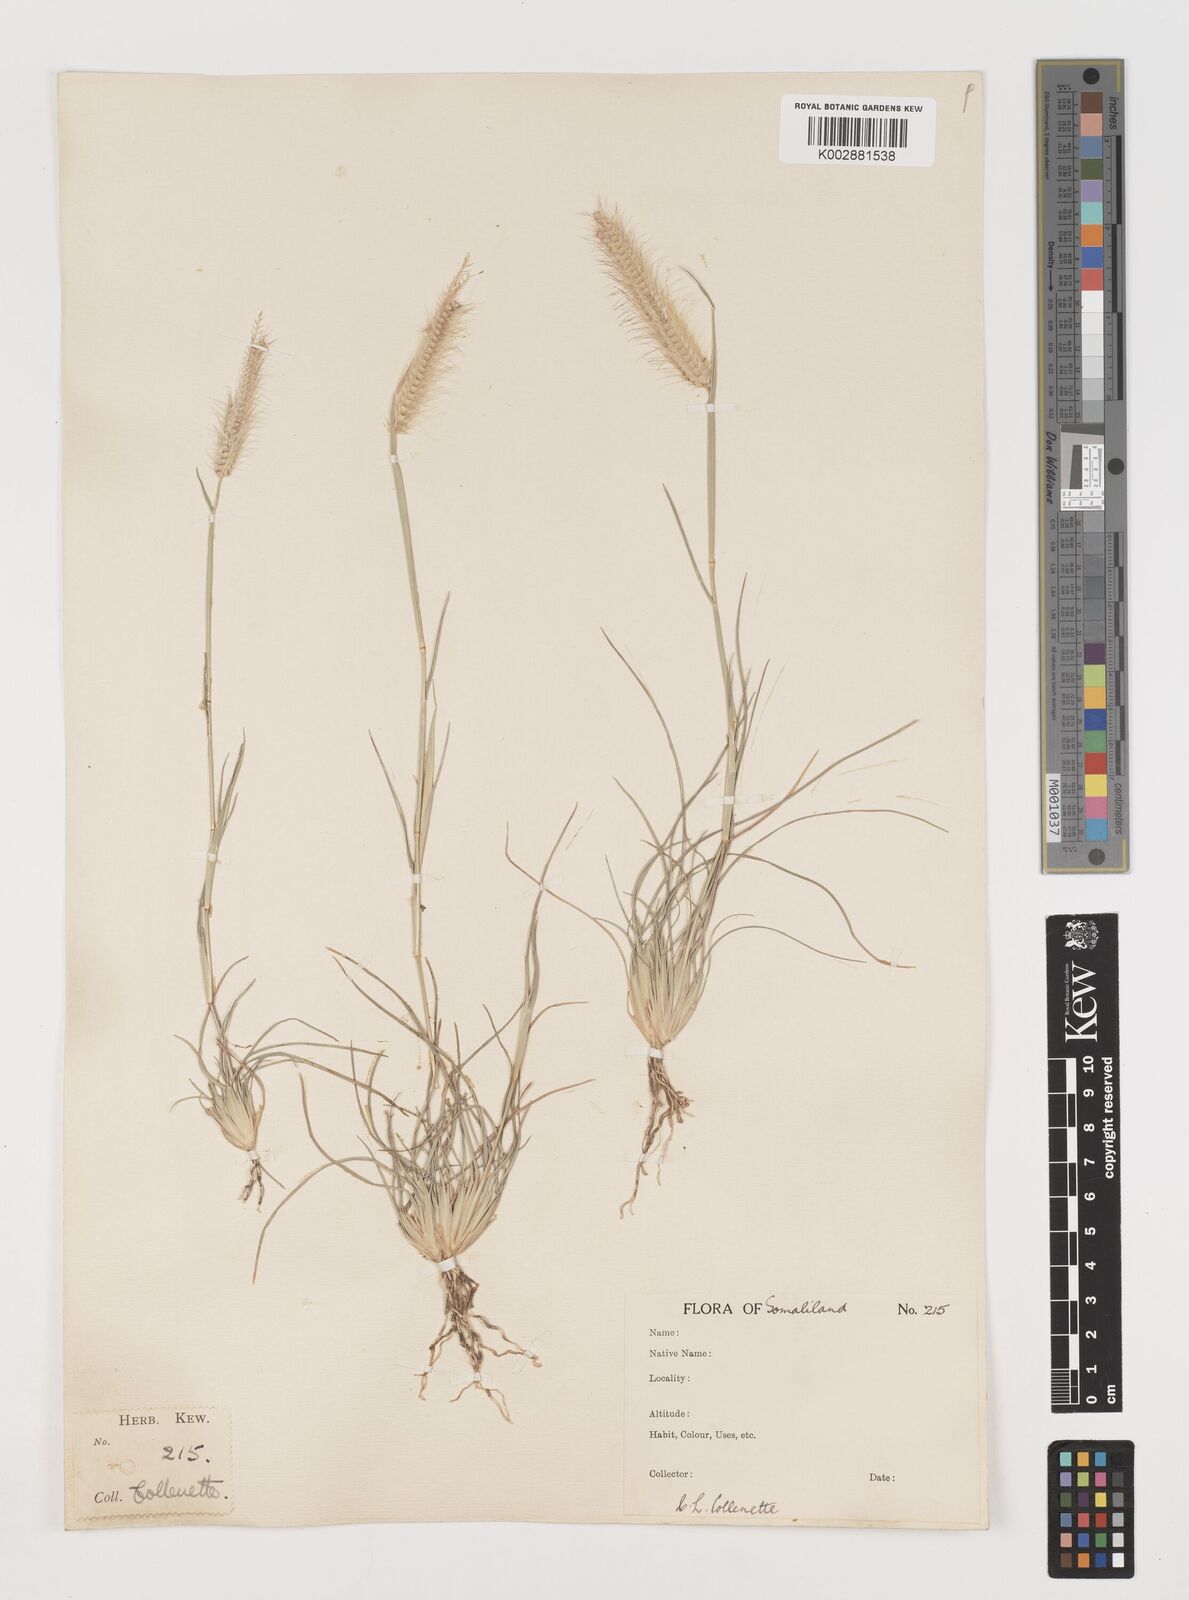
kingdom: Plantae
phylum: Tracheophyta
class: Liliopsida
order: Poales
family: Poaceae
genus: Tetrapogon
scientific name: Tetrapogon villosus
